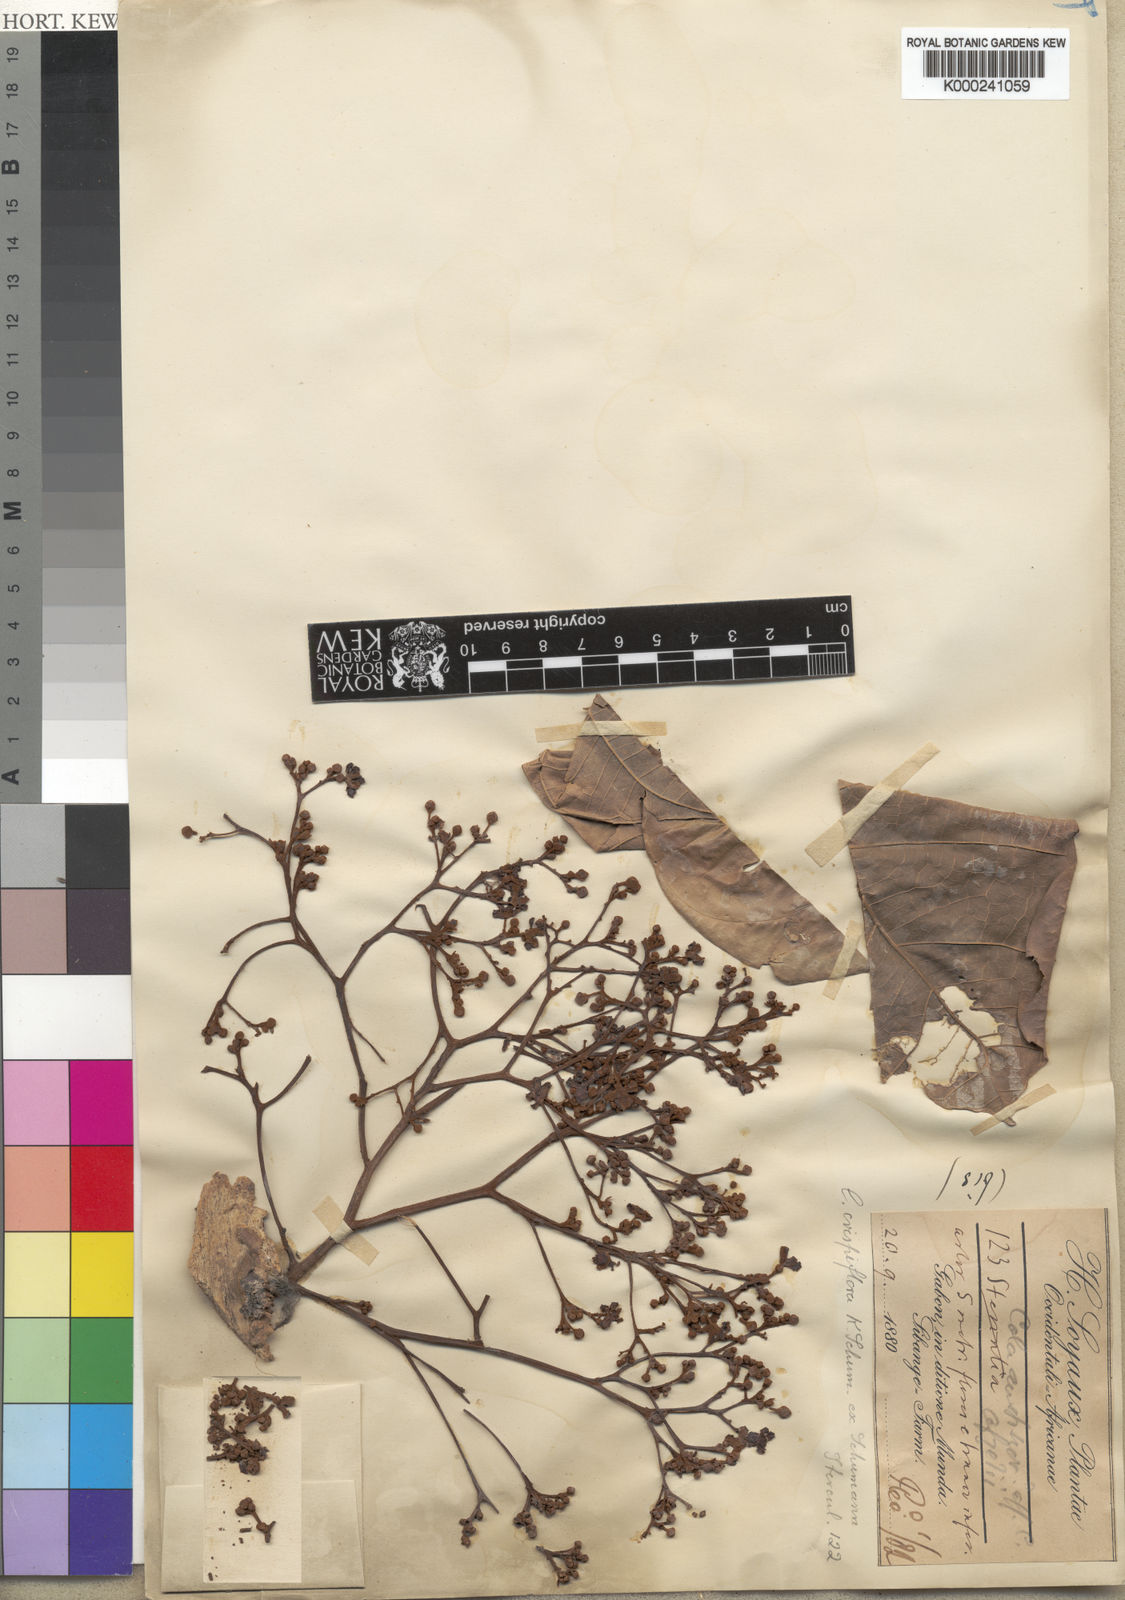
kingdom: Plantae
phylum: Tracheophyta
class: Magnoliopsida
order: Malvales
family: Malvaceae
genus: Cola
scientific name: Cola crispiflora
